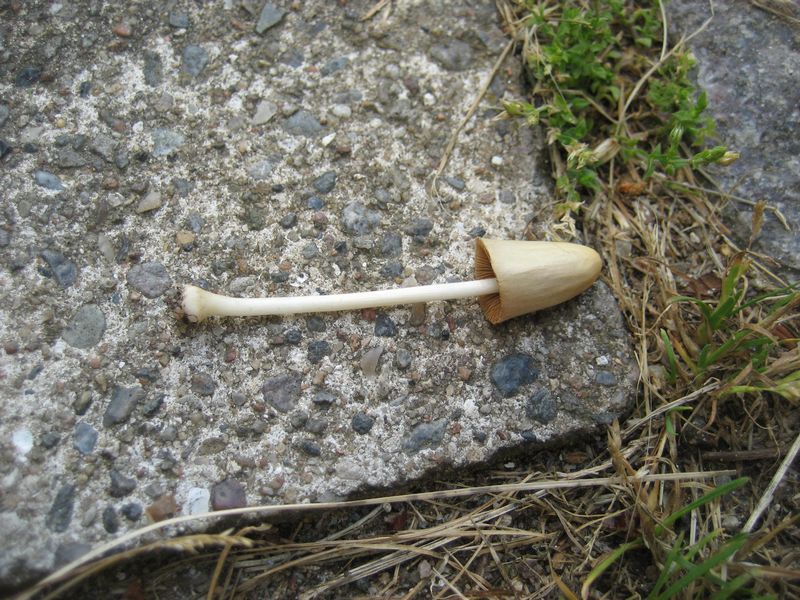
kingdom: Fungi
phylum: Basidiomycota
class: Agaricomycetes
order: Agaricales
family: Bolbitiaceae
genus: Conocybe
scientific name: Conocybe apala
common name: mælkehvid keglehat
